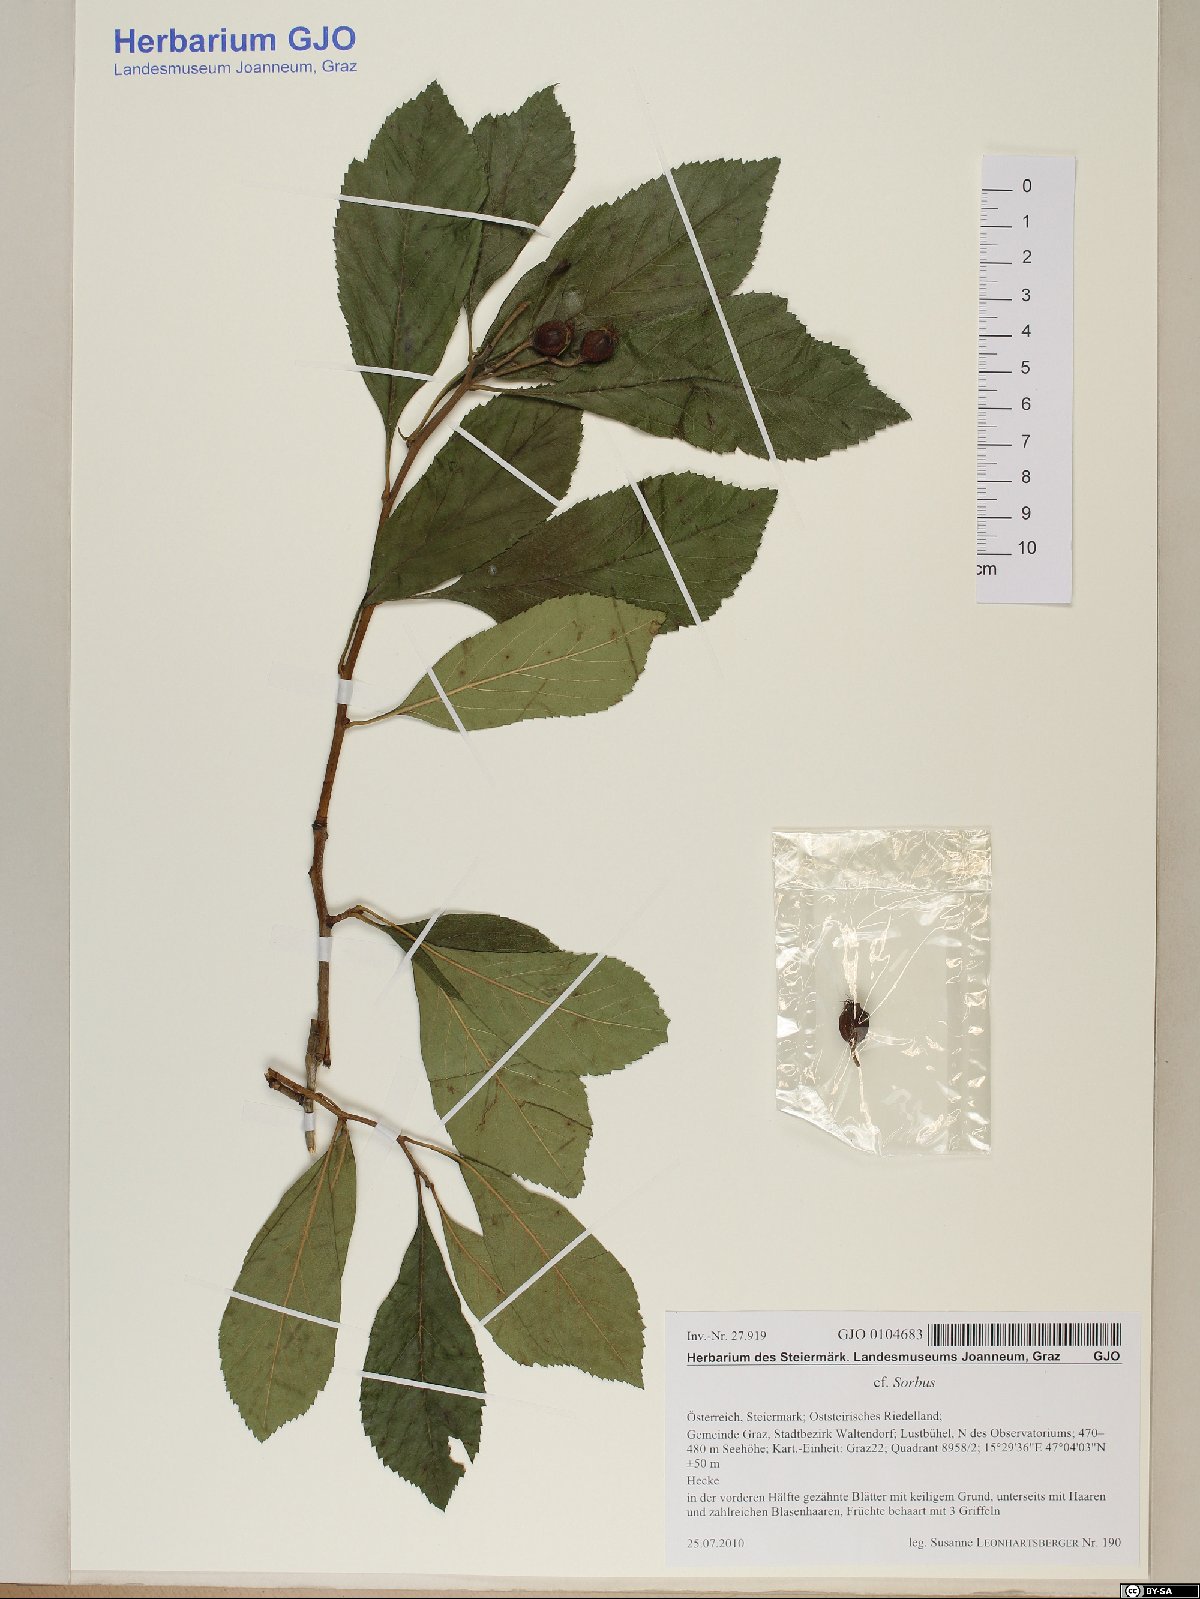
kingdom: Plantae
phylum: Tracheophyta
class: Magnoliopsida
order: Rosales
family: Rosaceae
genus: Sorbus
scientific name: Sorbus
